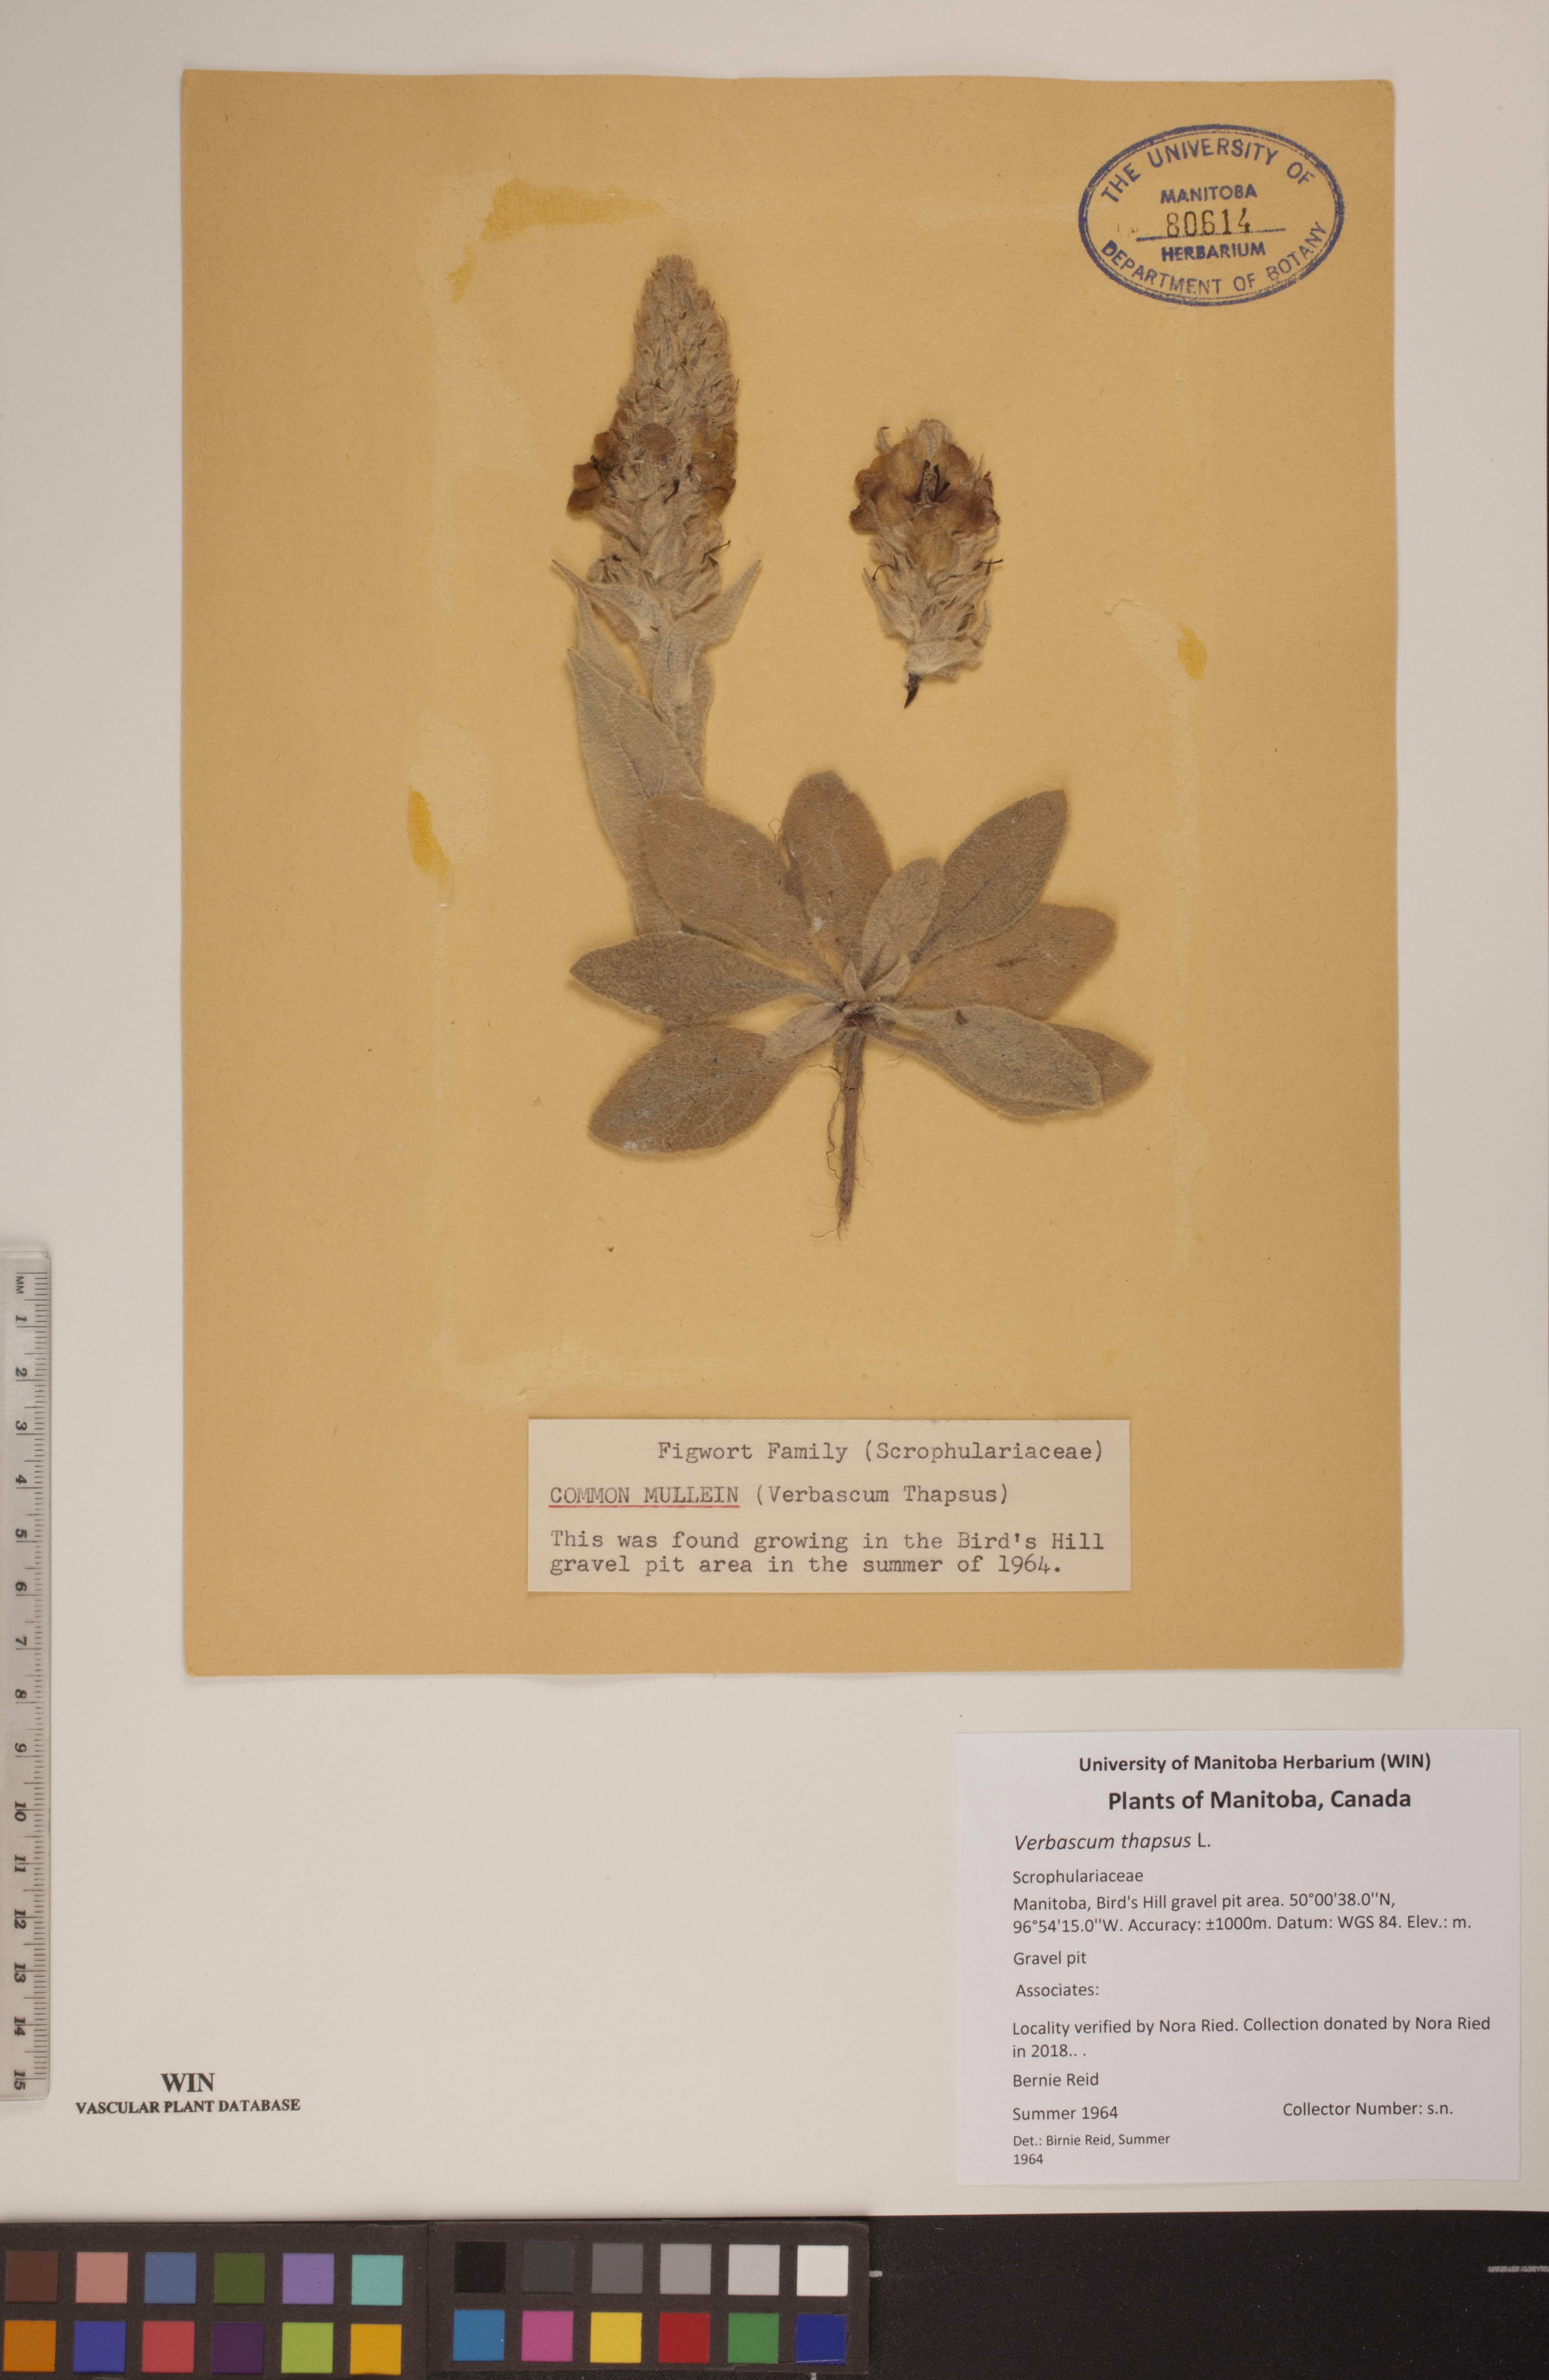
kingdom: Plantae
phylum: Tracheophyta
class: Magnoliopsida
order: Lamiales
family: Scrophulariaceae
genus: Verbascum
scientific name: Verbascum thapsus
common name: Common mullein
